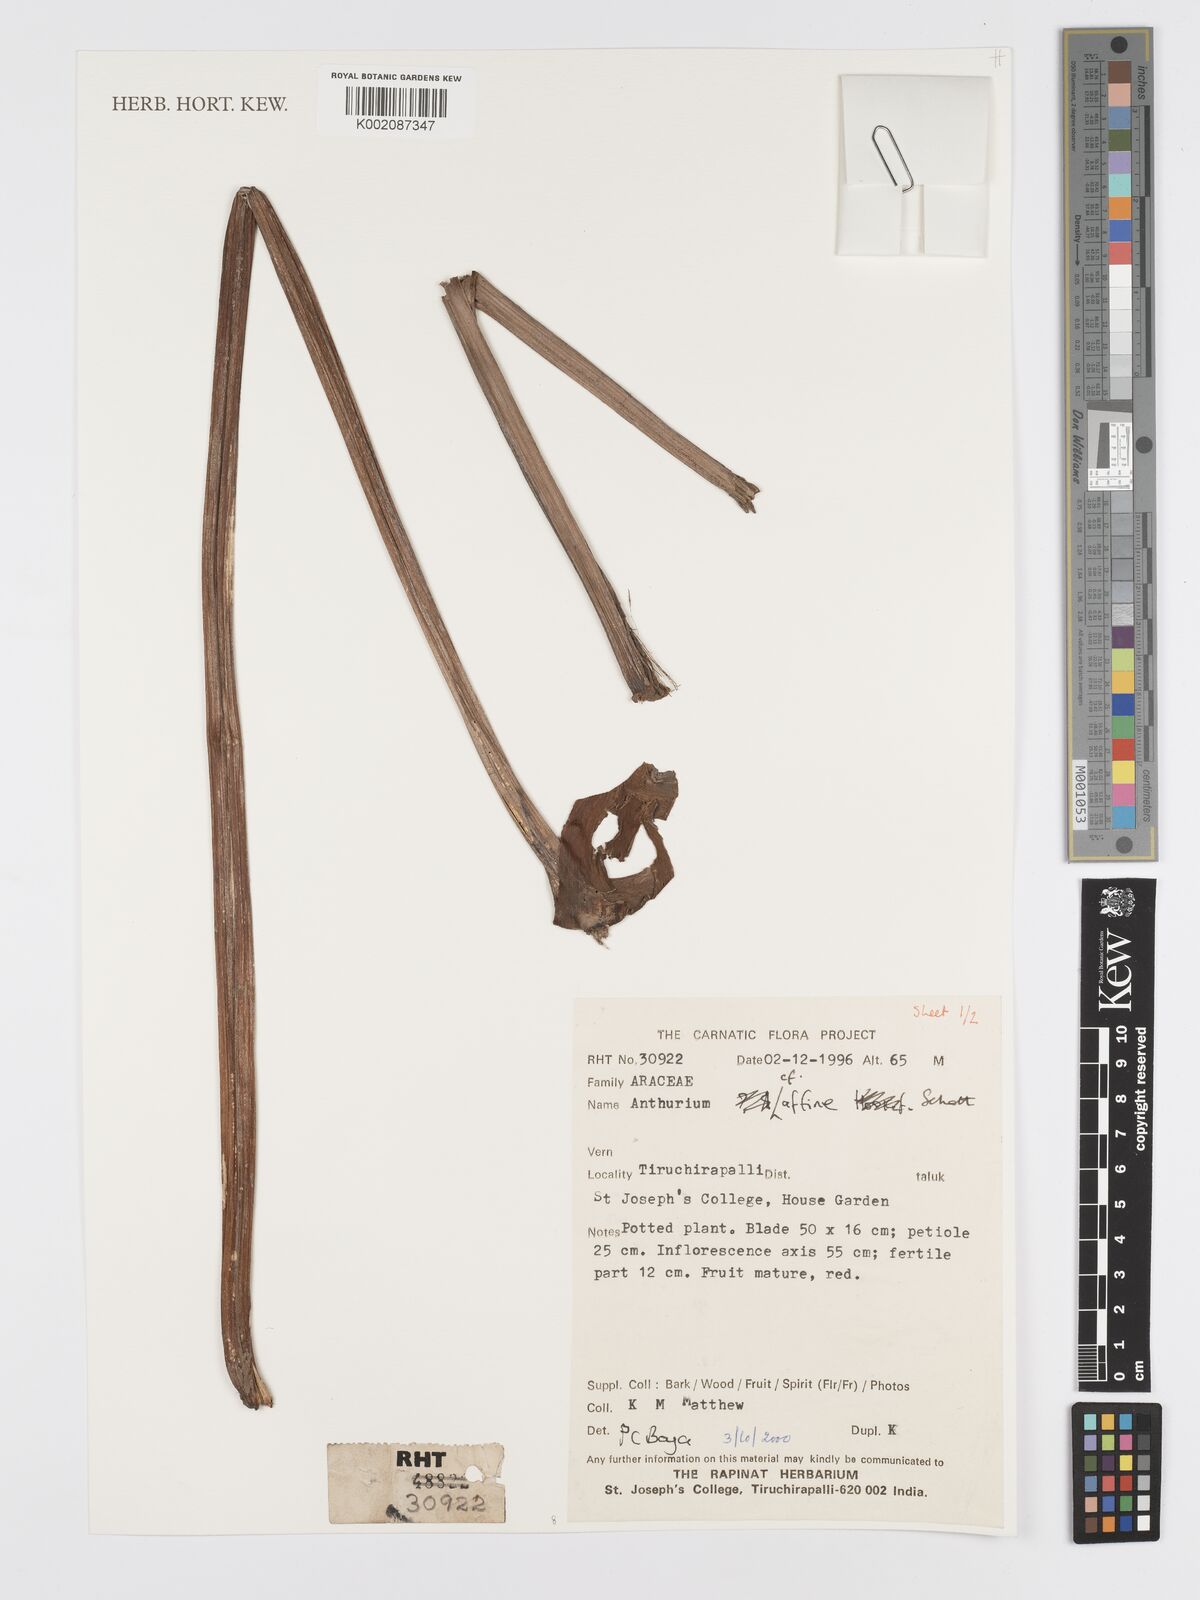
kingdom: Plantae
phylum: Tracheophyta
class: Liliopsida
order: Alismatales
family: Araceae
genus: Anthurium
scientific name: Anthurium affine
